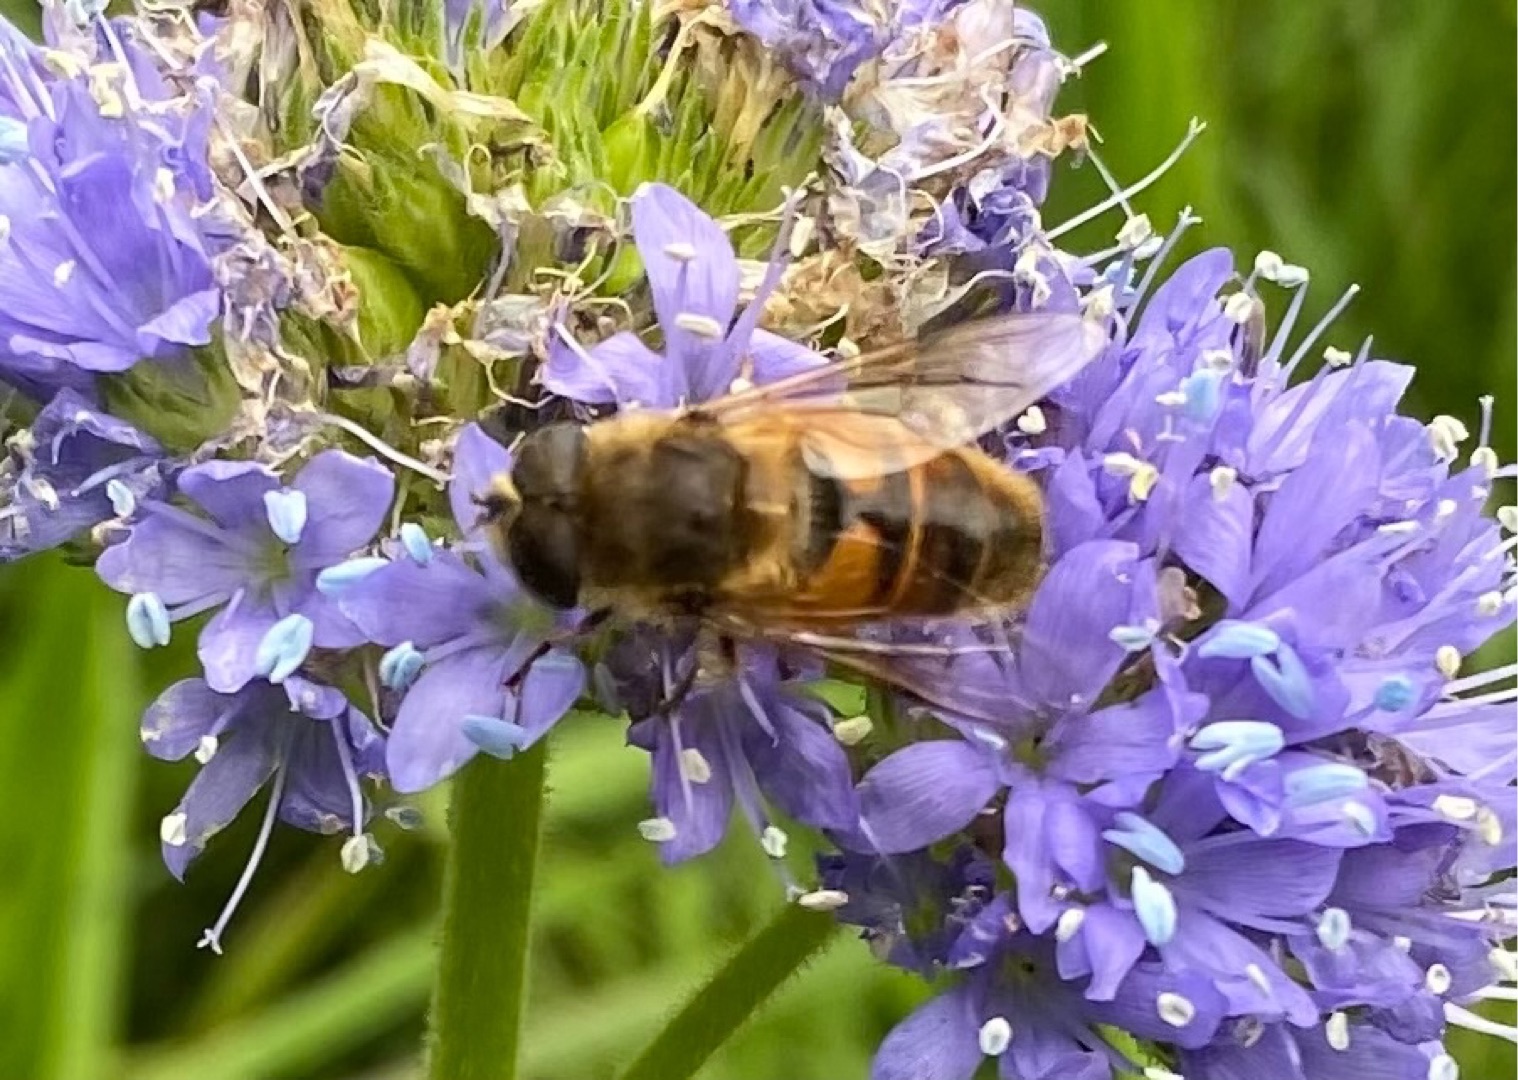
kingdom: Animalia
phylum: Arthropoda
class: Insecta
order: Diptera
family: Syrphidae
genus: Eristalis
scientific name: Eristalis tenax
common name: Droneflue
